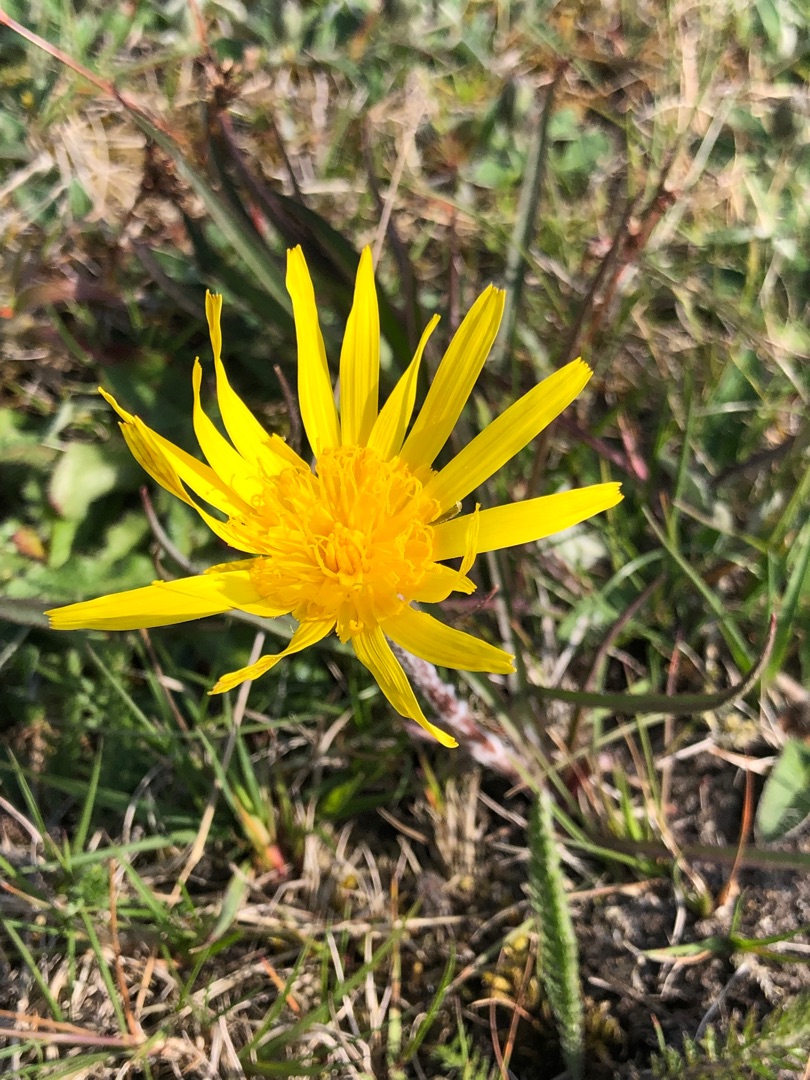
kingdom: Plantae
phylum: Tracheophyta
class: Magnoliopsida
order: Asterales
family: Asteraceae
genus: Scorzonera
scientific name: Scorzonera humilis
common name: Lav skorsoner
